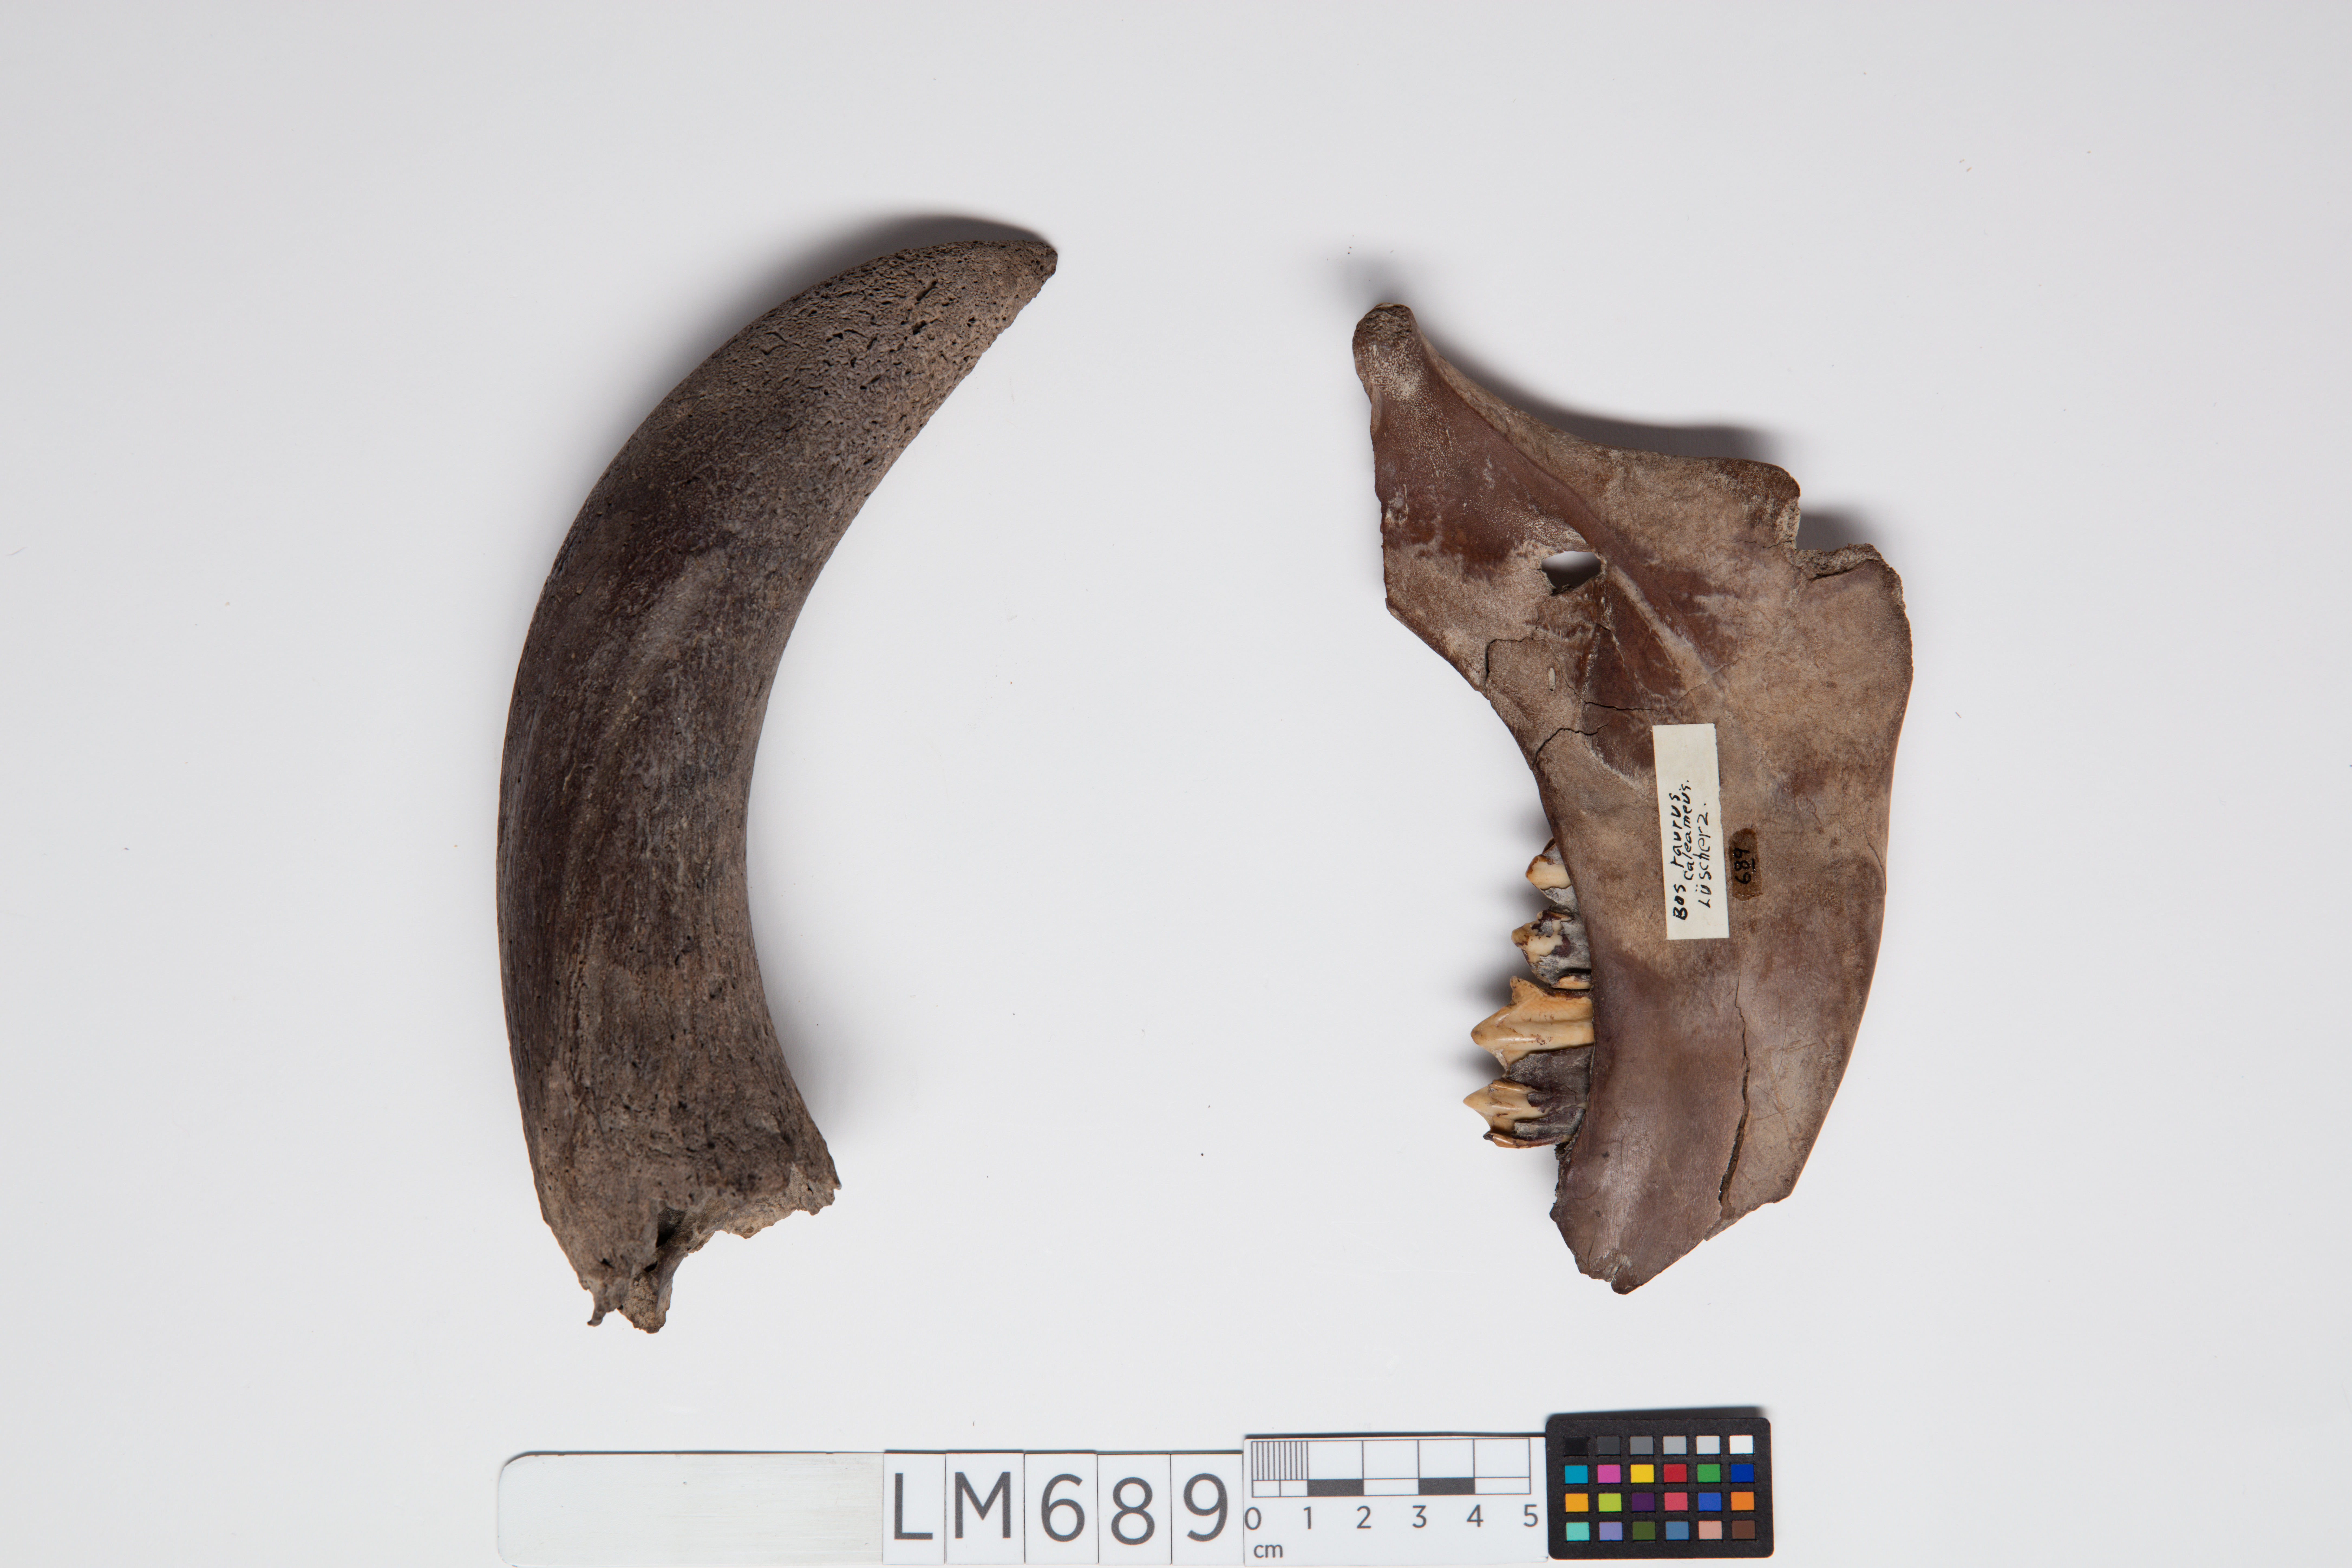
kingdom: Animalia
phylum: Chordata
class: Mammalia
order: Artiodactyla
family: Bovidae
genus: Bos
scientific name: Bos taurus
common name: Domesticated cattle
